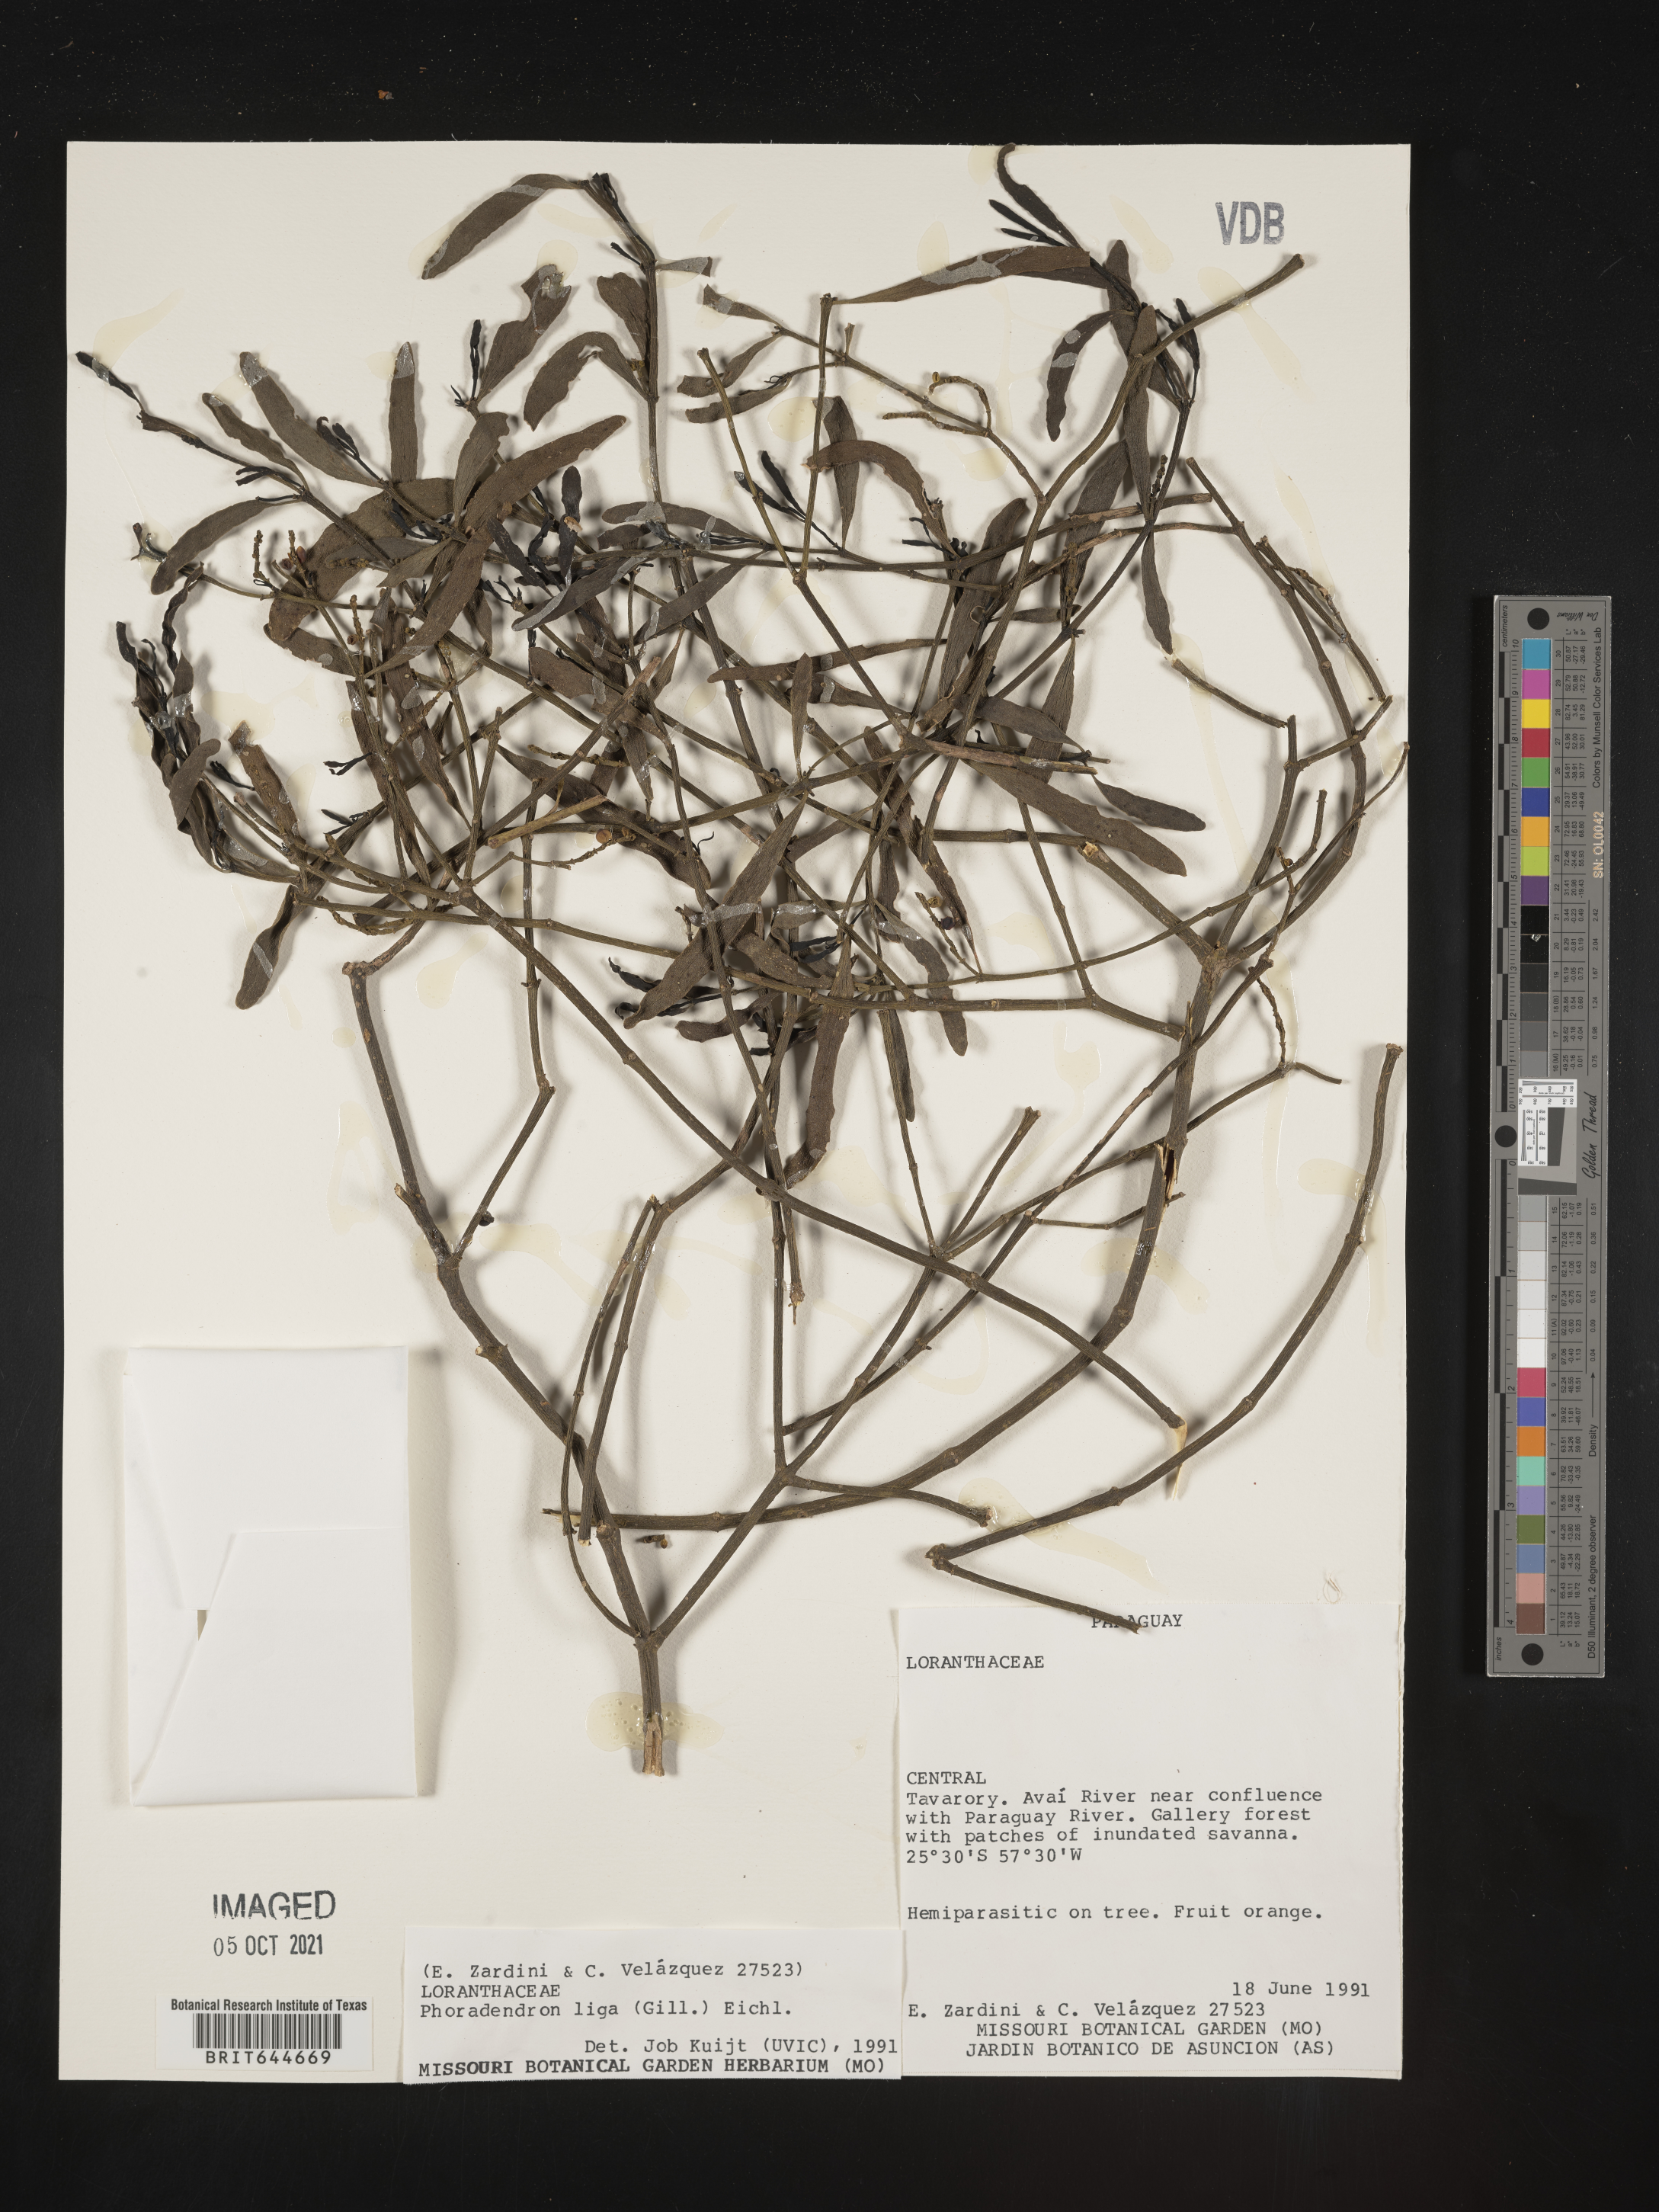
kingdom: Plantae
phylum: Tracheophyta
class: Magnoliopsida
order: Santalales
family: Viscaceae
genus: Phoradendron
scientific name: Phoradendron
